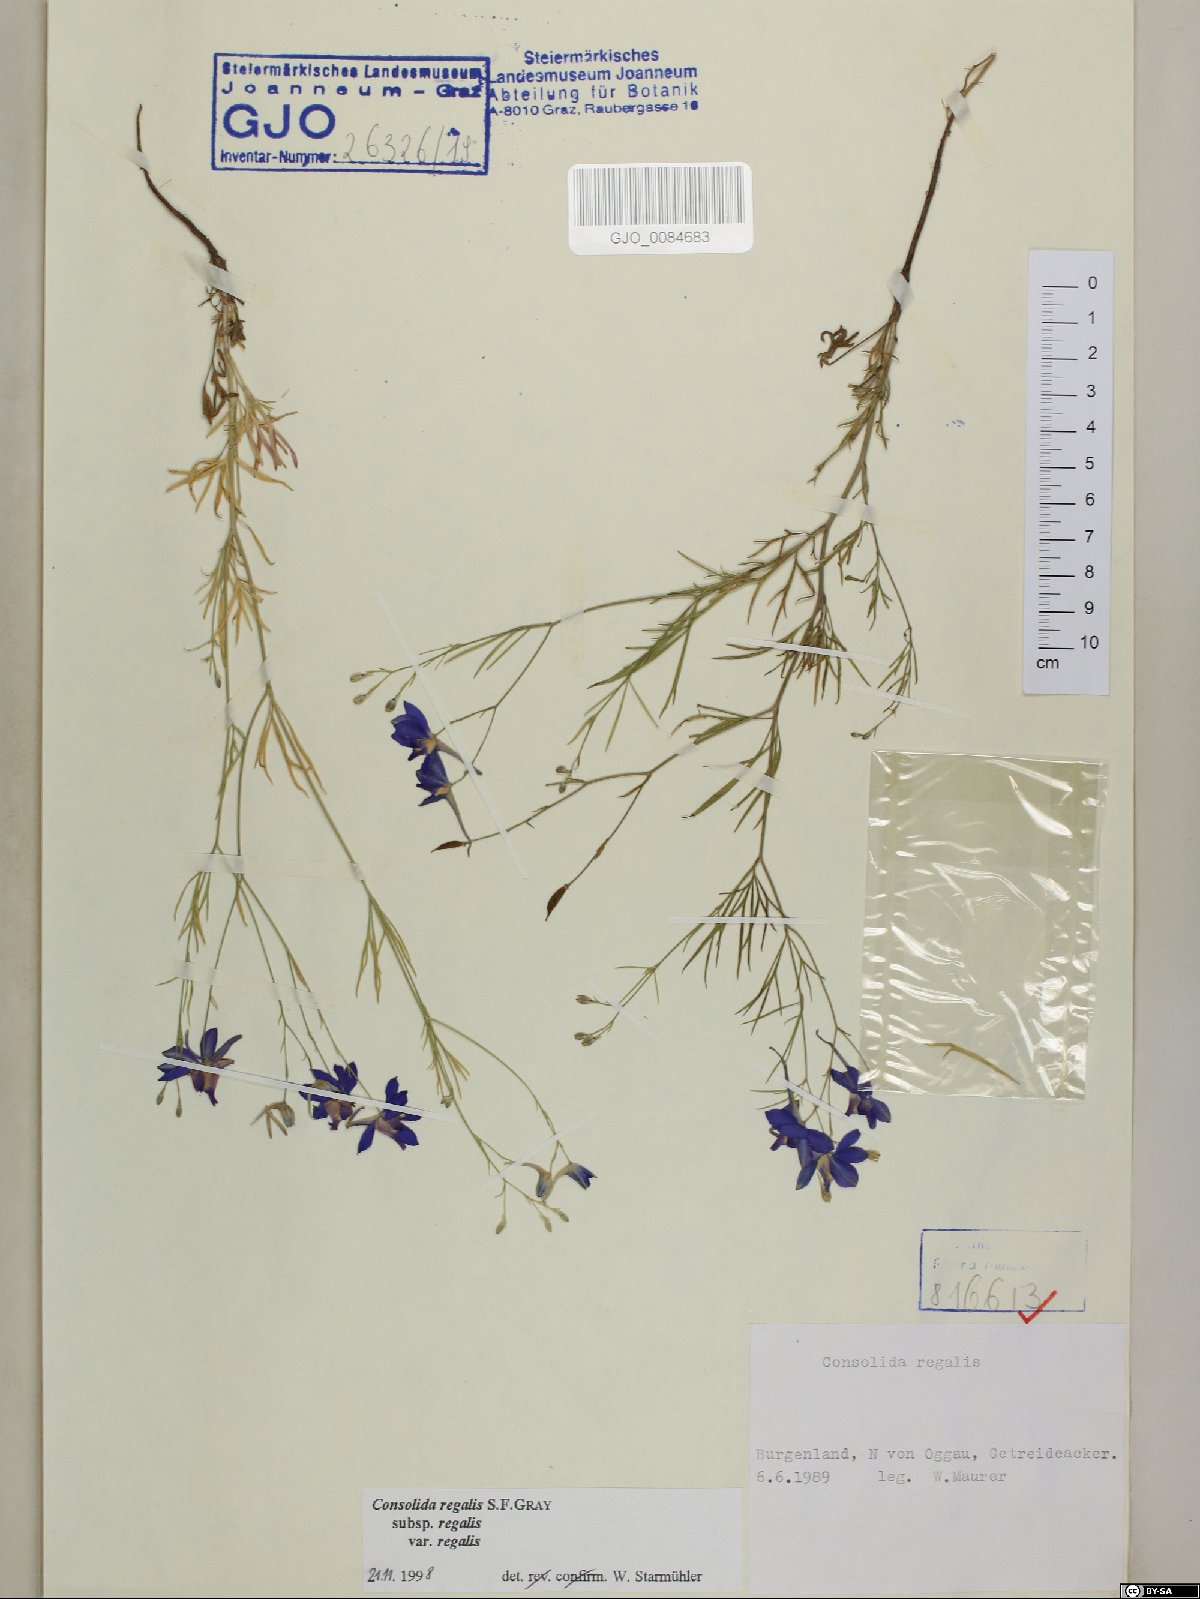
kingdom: Plantae
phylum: Tracheophyta
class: Magnoliopsida
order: Ranunculales
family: Ranunculaceae
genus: Delphinium
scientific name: Delphinium consolida
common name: Branching larkspur
